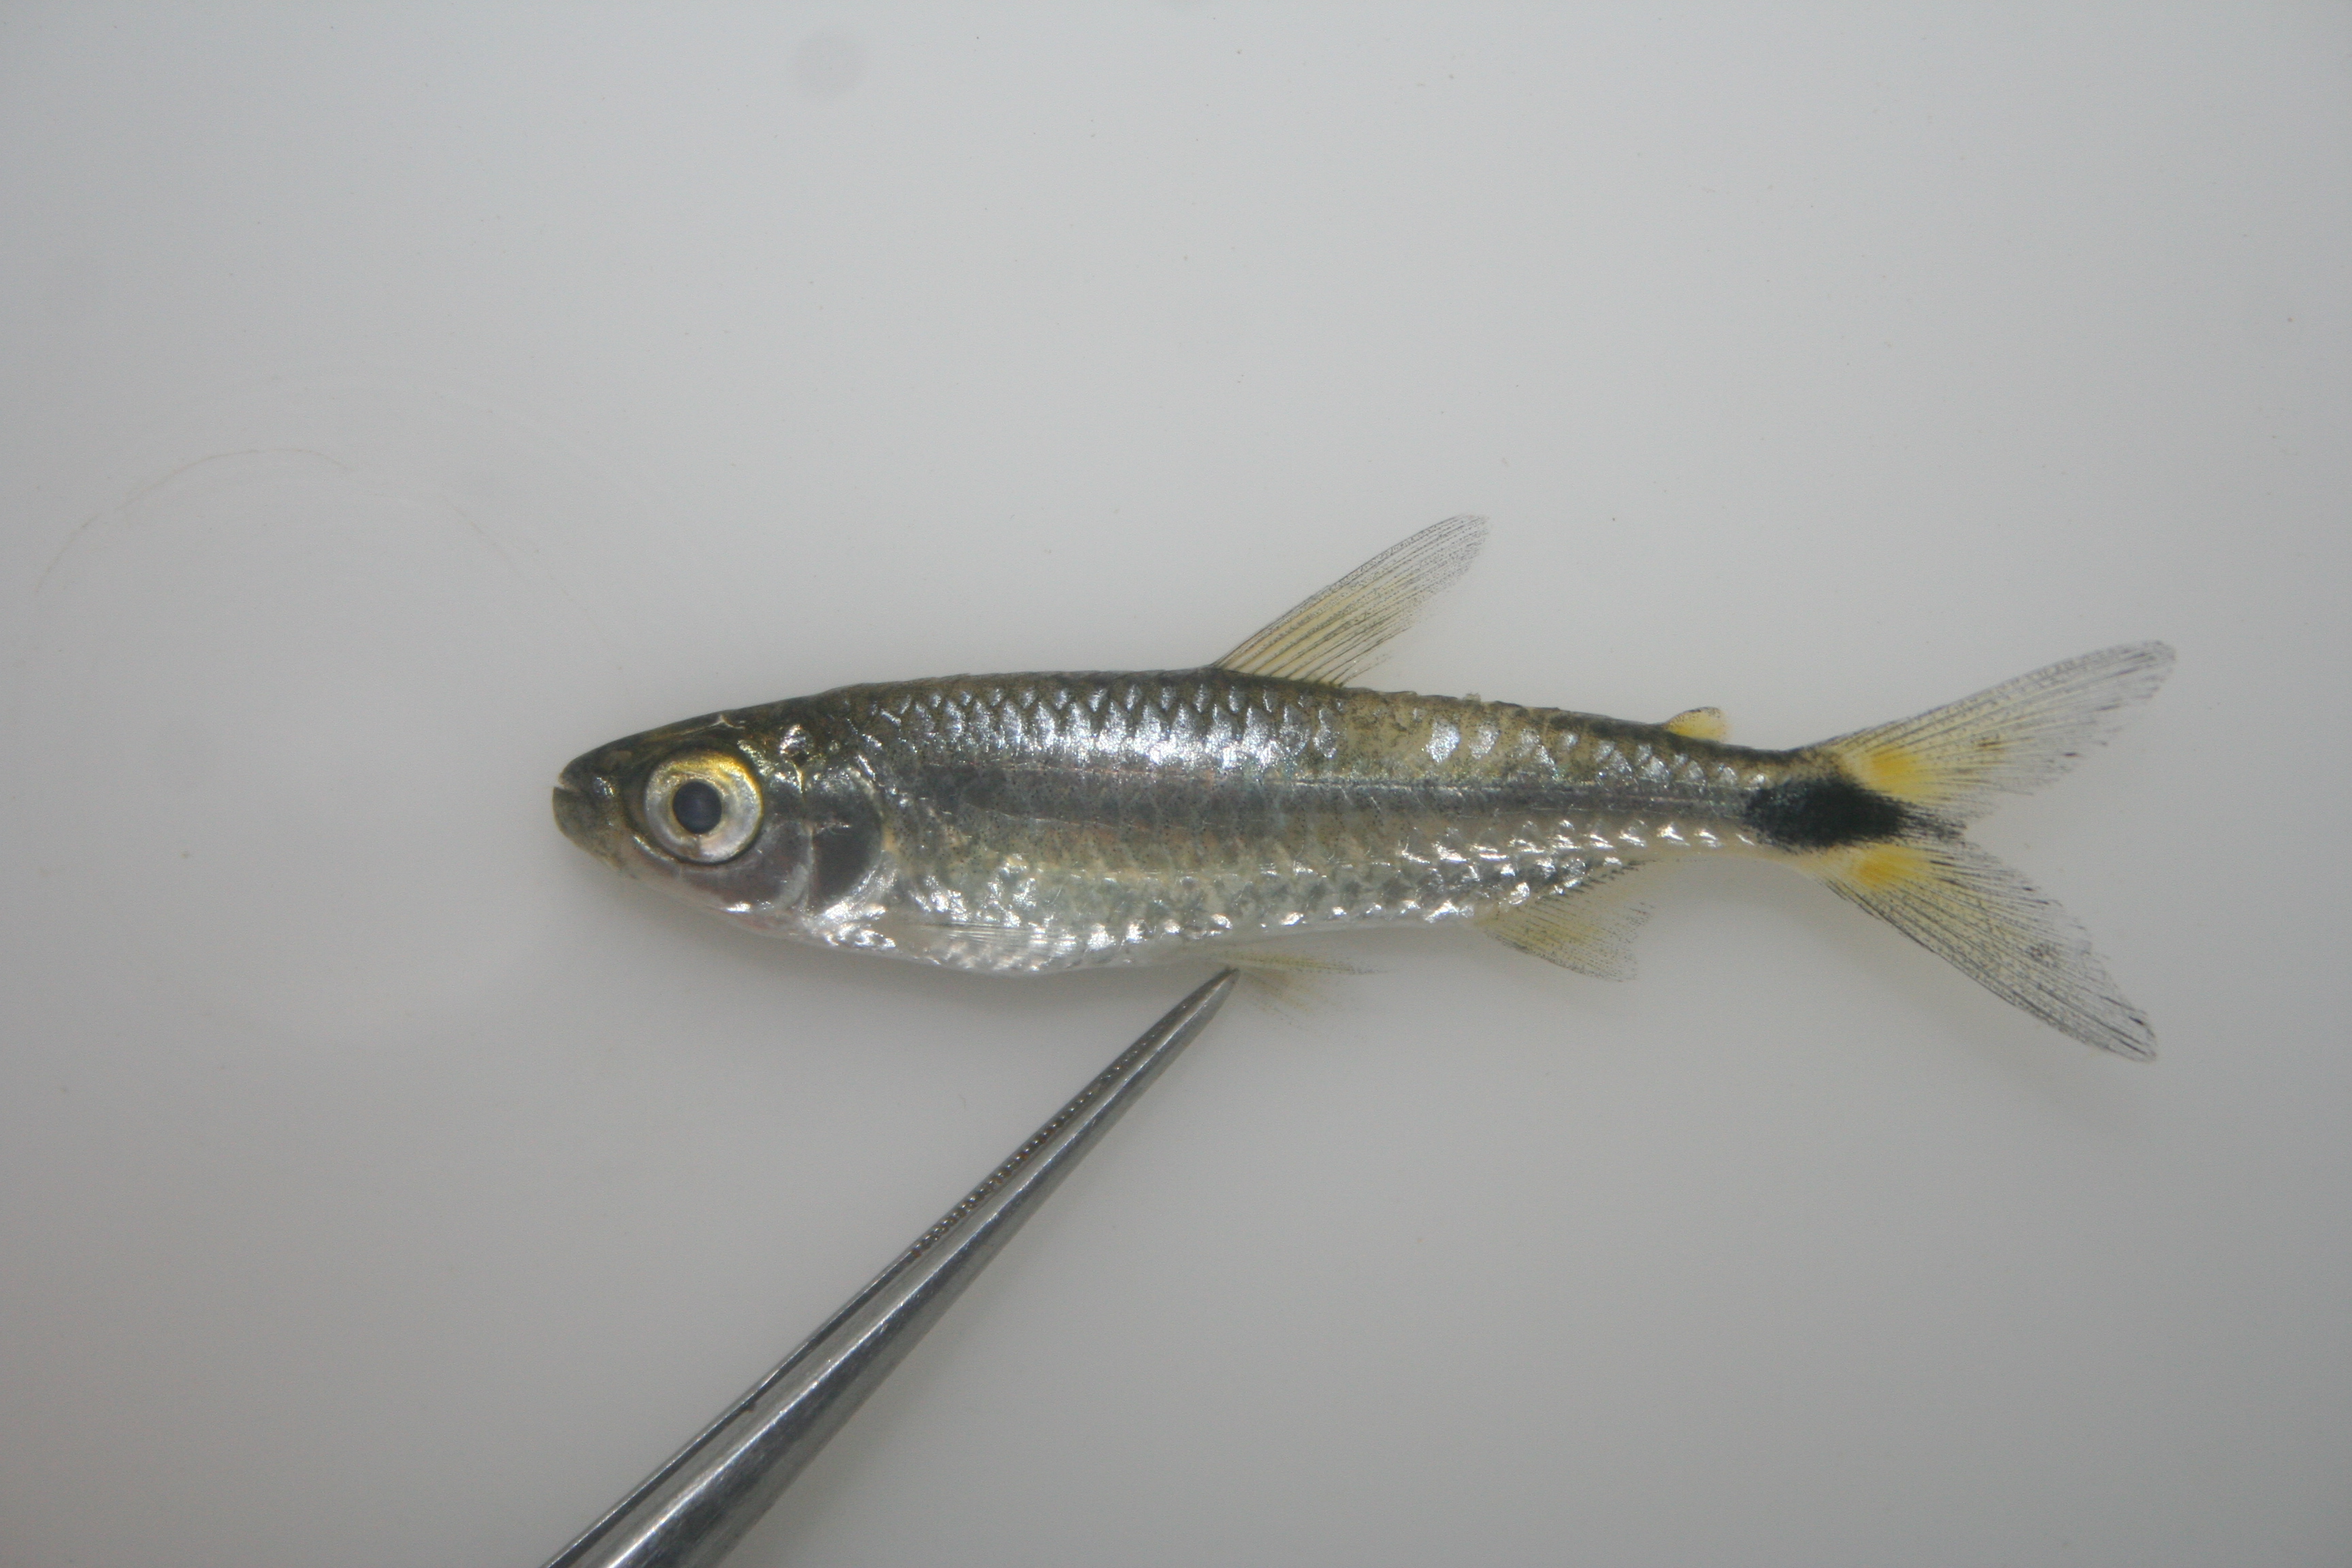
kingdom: Animalia
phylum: Chordata
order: Characiformes
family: Alestidae
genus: Brycinus
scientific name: Brycinus lateralis
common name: Striped robber
